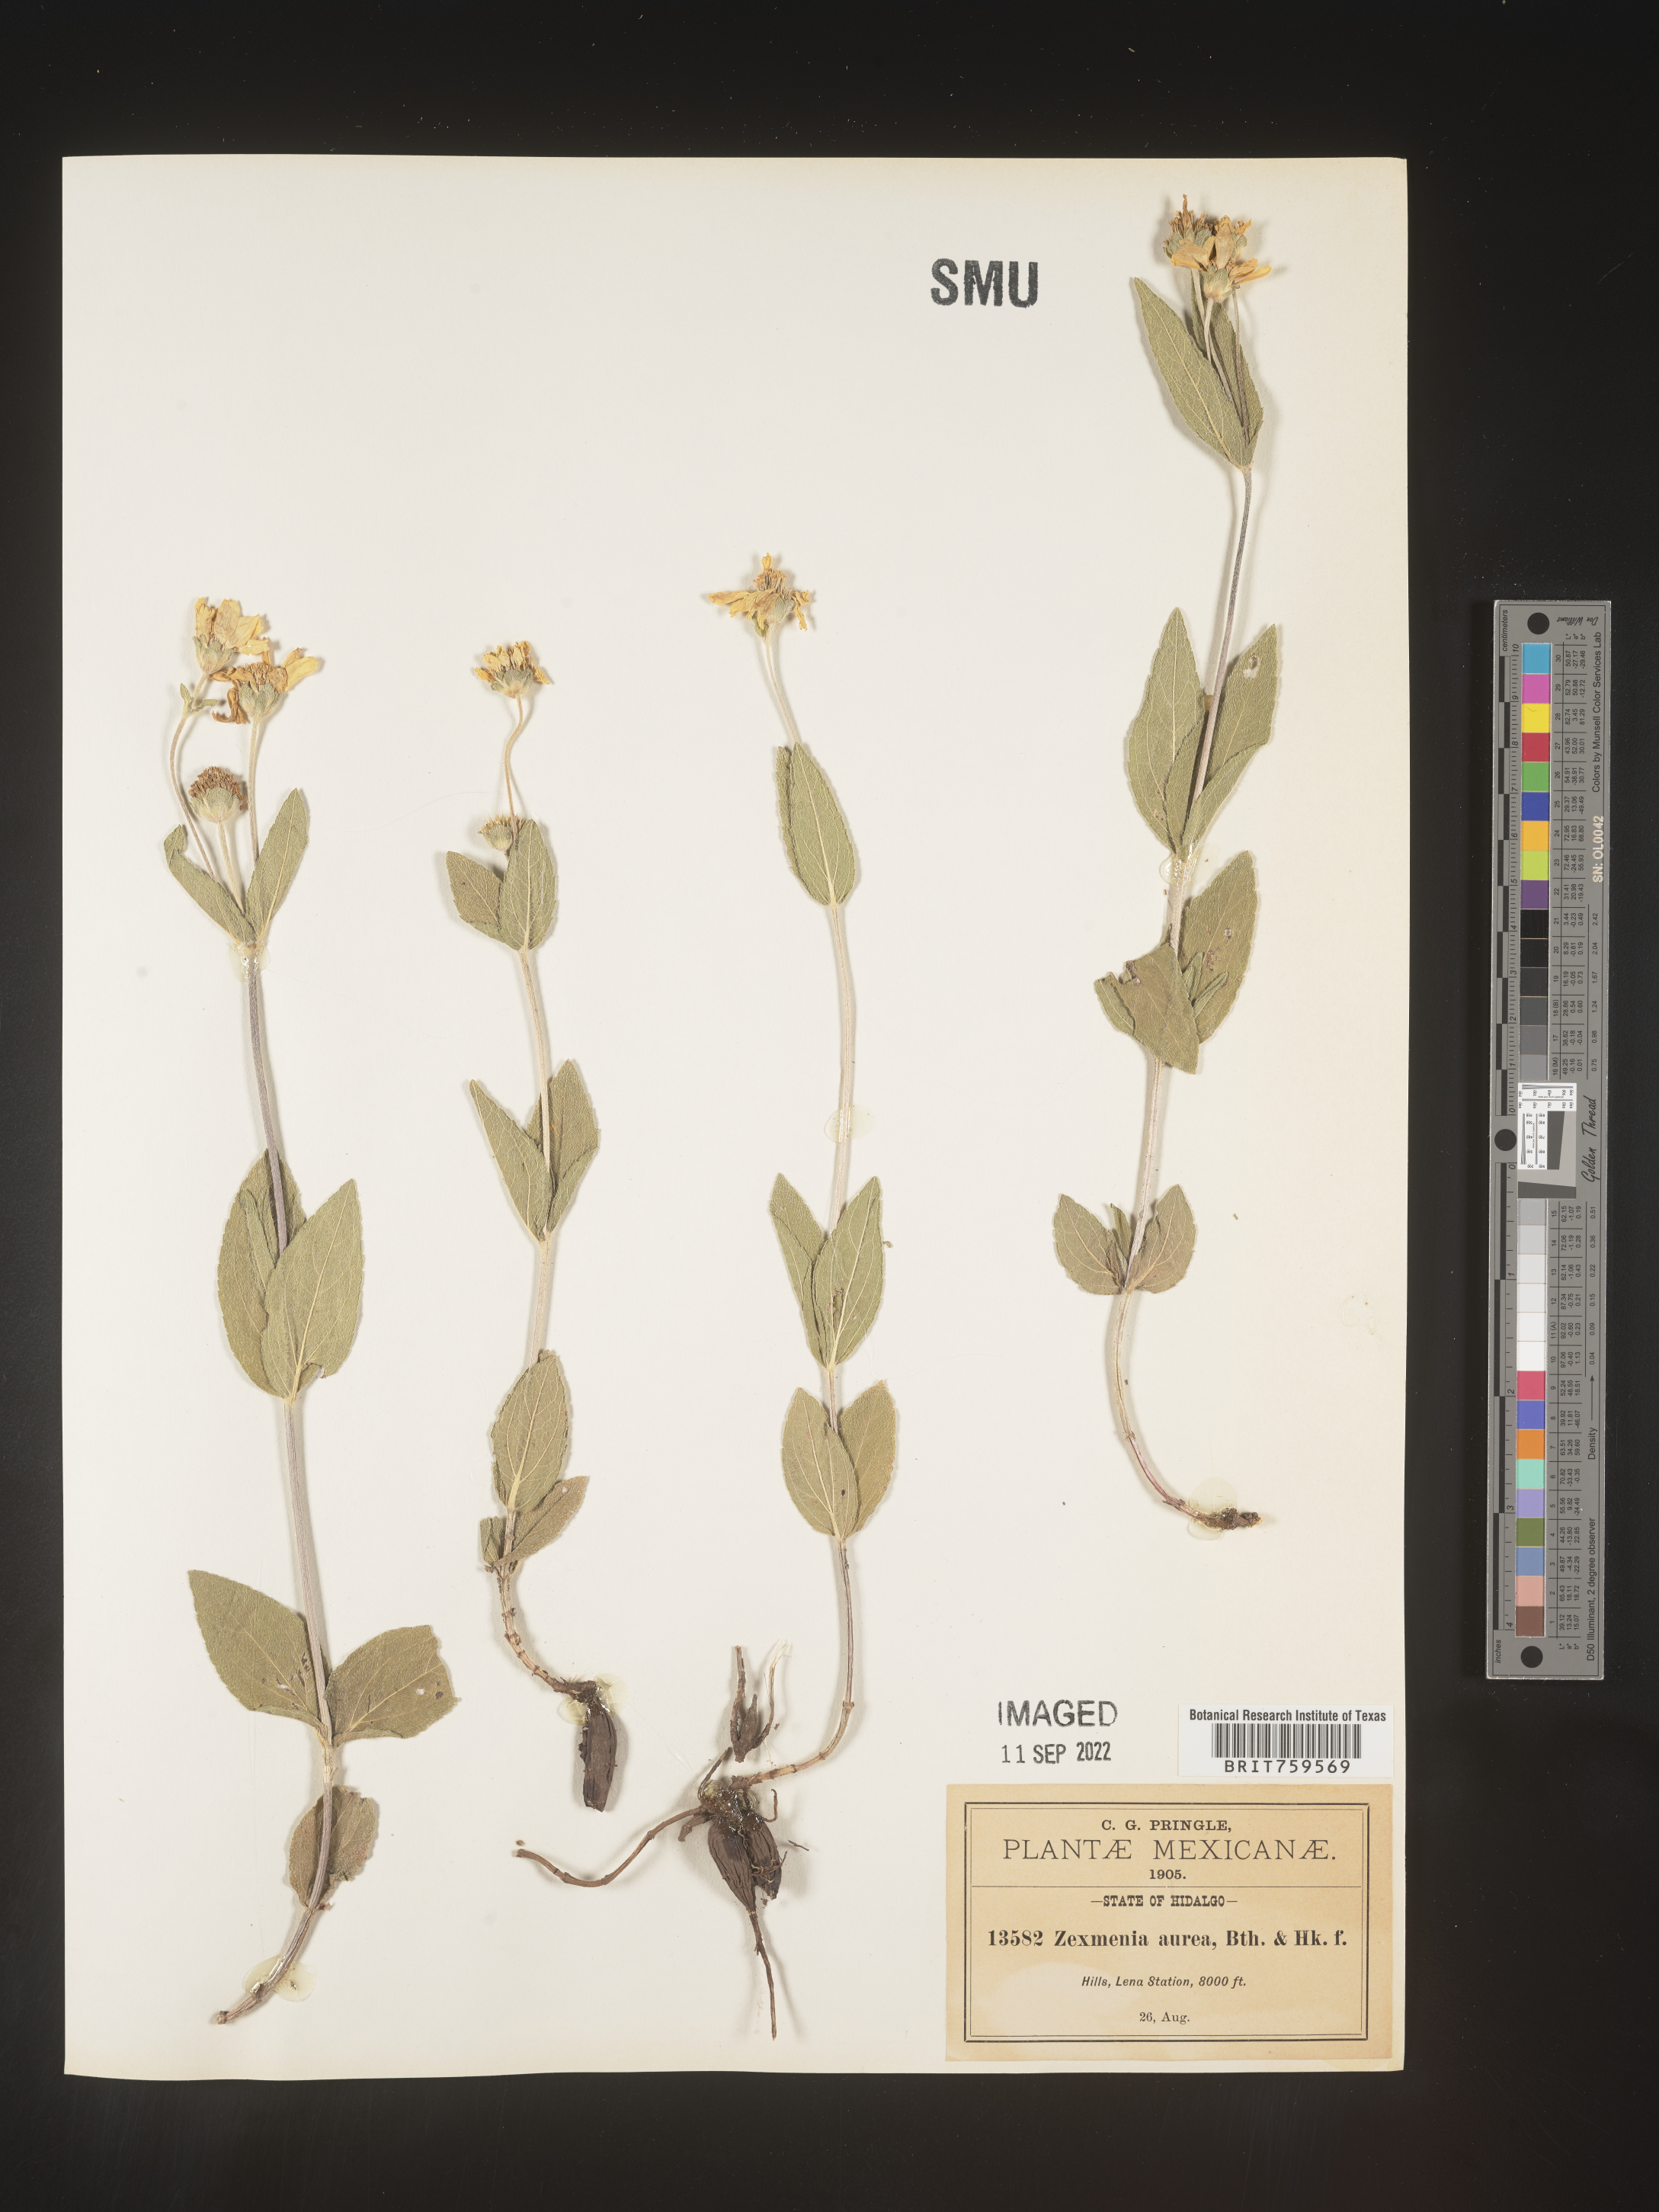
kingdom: Plantae
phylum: Tracheophyta
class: Magnoliopsida
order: Asterales
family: Asteraceae
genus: Zexmenia
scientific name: Zexmenia
